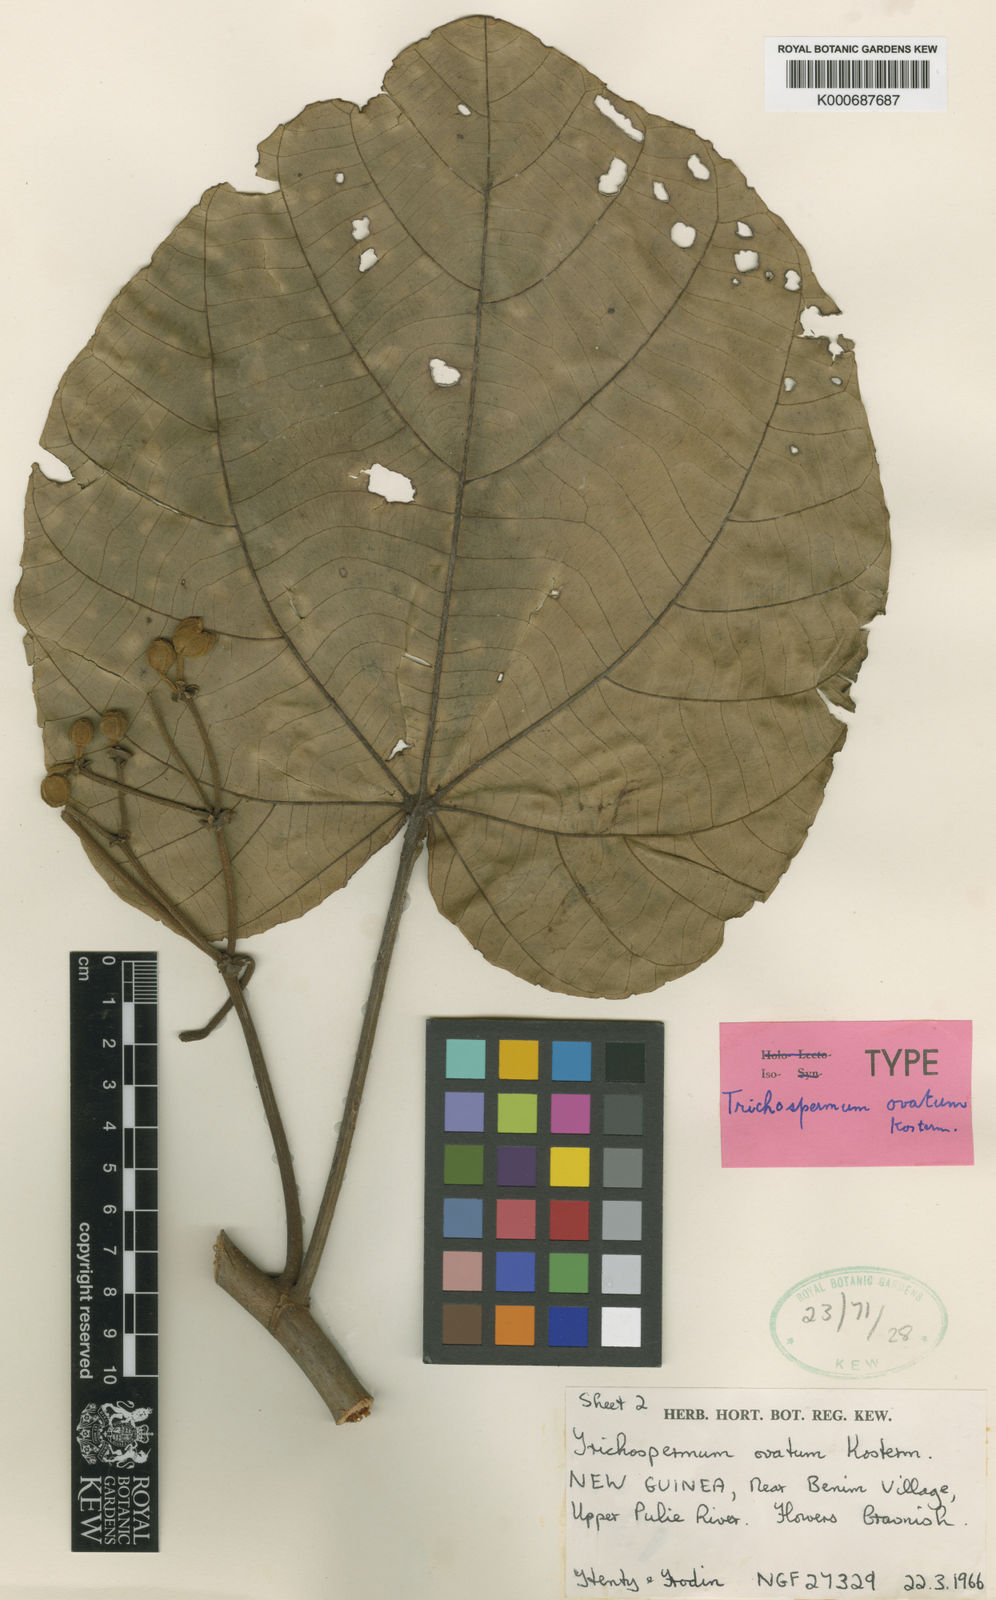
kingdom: Plantae
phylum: Tracheophyta
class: Magnoliopsida
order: Malvales
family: Malvaceae
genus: Trichospermum
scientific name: Trichospermum ovatum
